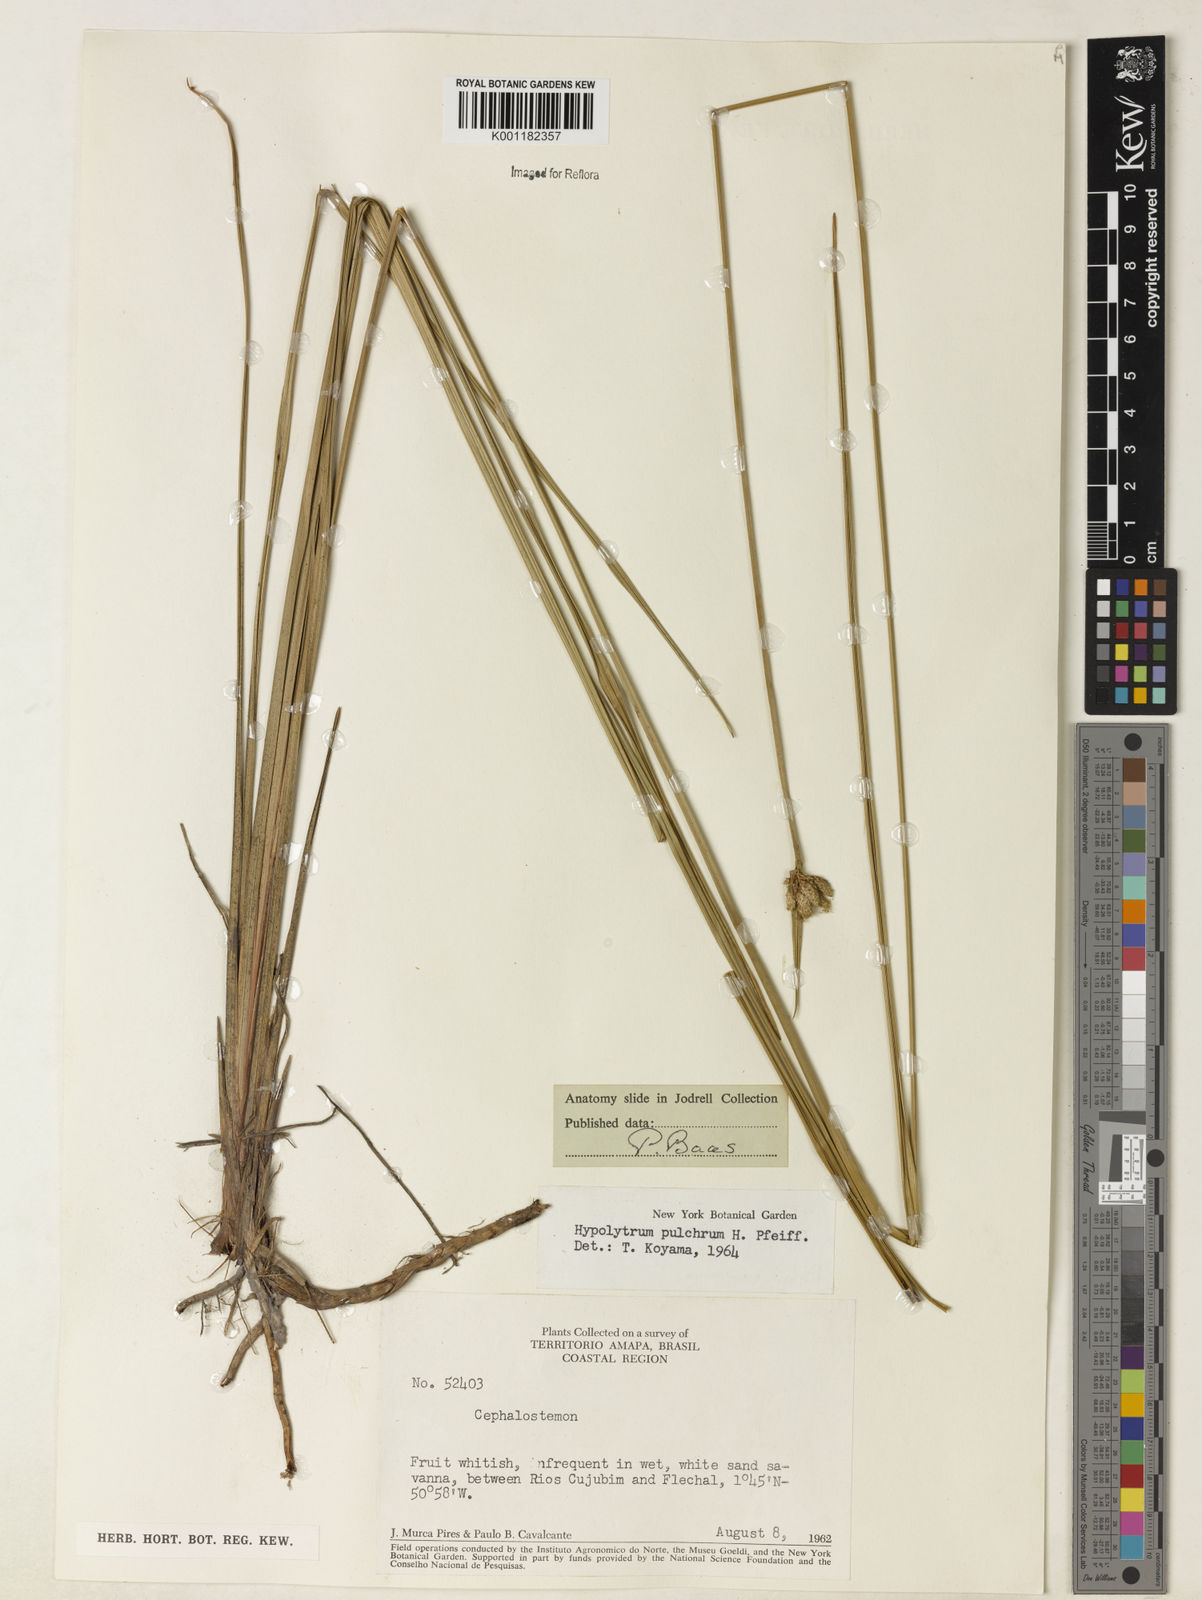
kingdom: Plantae
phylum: Tracheophyta
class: Liliopsida
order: Poales
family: Cyperaceae
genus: Hypolytrum
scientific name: Hypolytrum pulchrum
